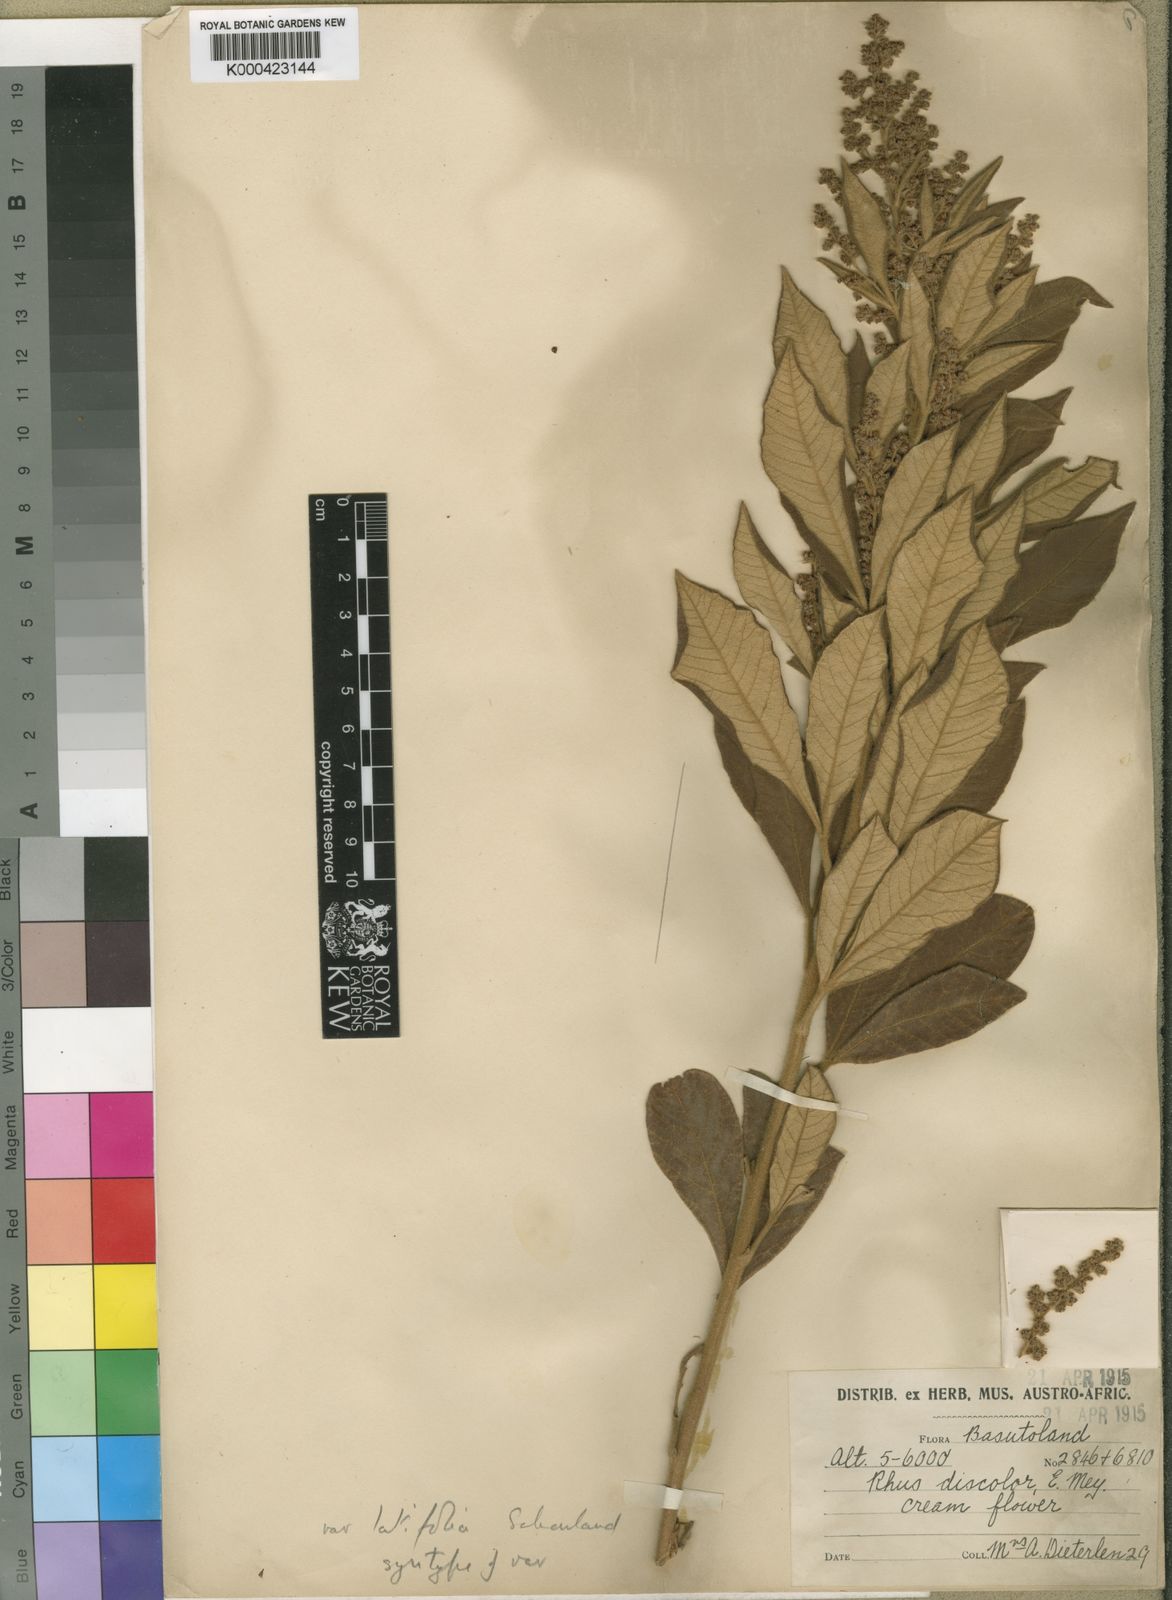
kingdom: Plantae
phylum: Tracheophyta
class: Magnoliopsida
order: Sapindales
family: Anacardiaceae
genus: Rhus
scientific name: Rhus
